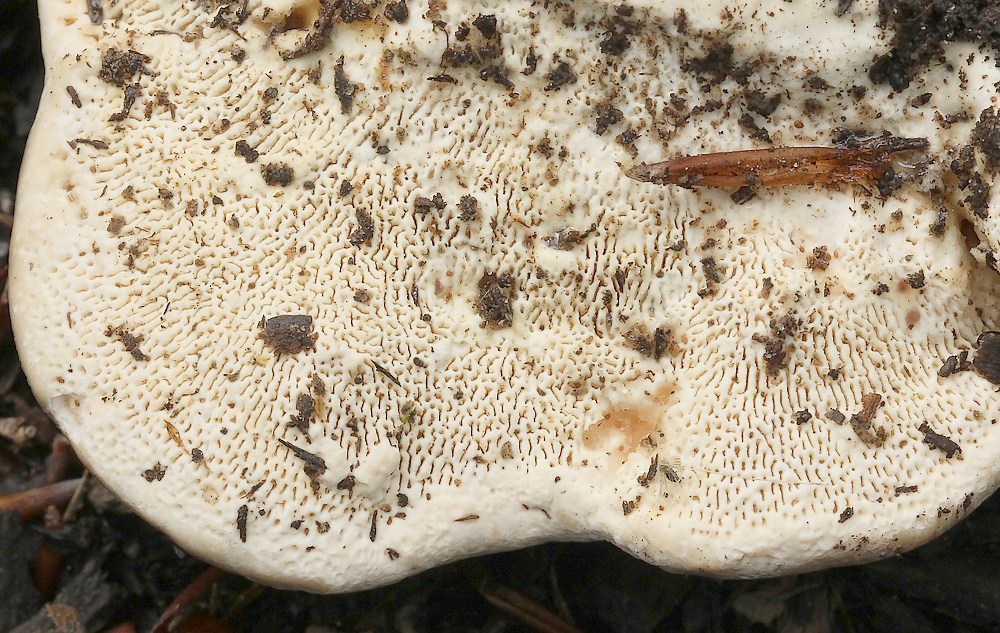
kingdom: Fungi
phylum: Basidiomycota
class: Agaricomycetes
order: Polyporales
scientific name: Polyporales
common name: poresvampordenen
